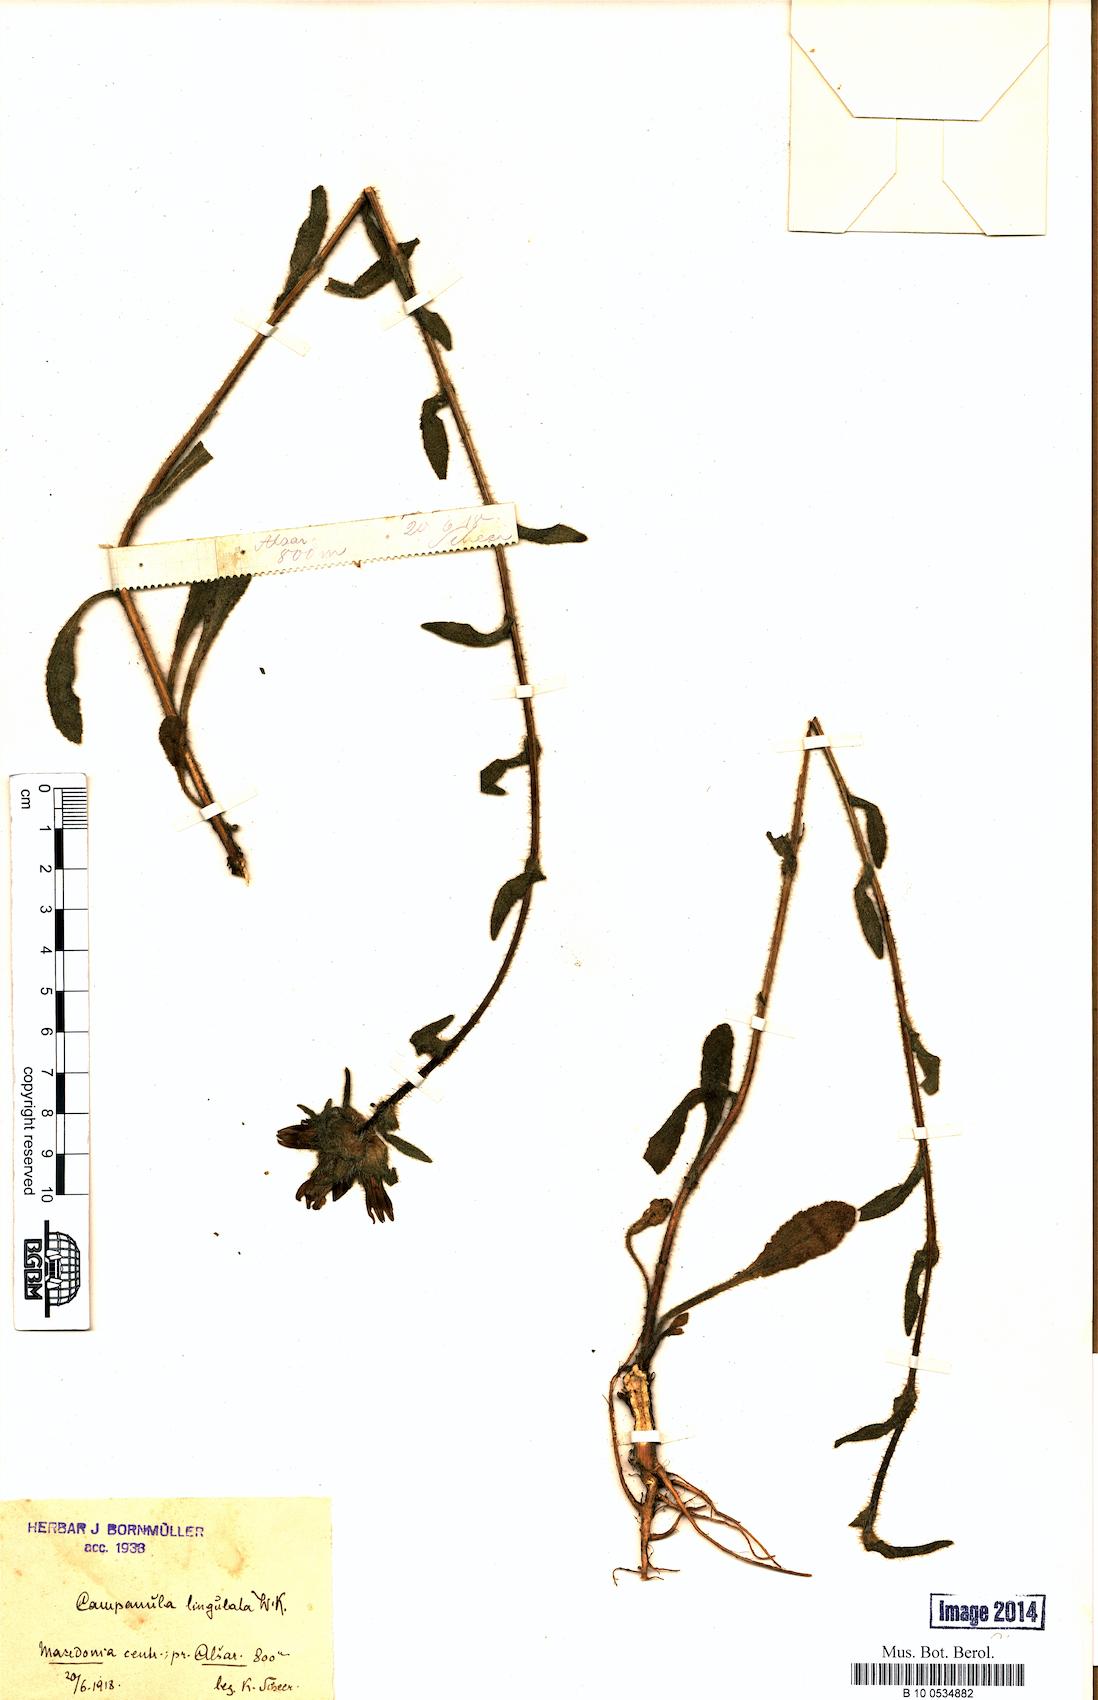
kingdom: Plantae
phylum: Tracheophyta
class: Magnoliopsida
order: Asterales
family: Campanulaceae
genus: Campanula
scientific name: Campanula lingulata
